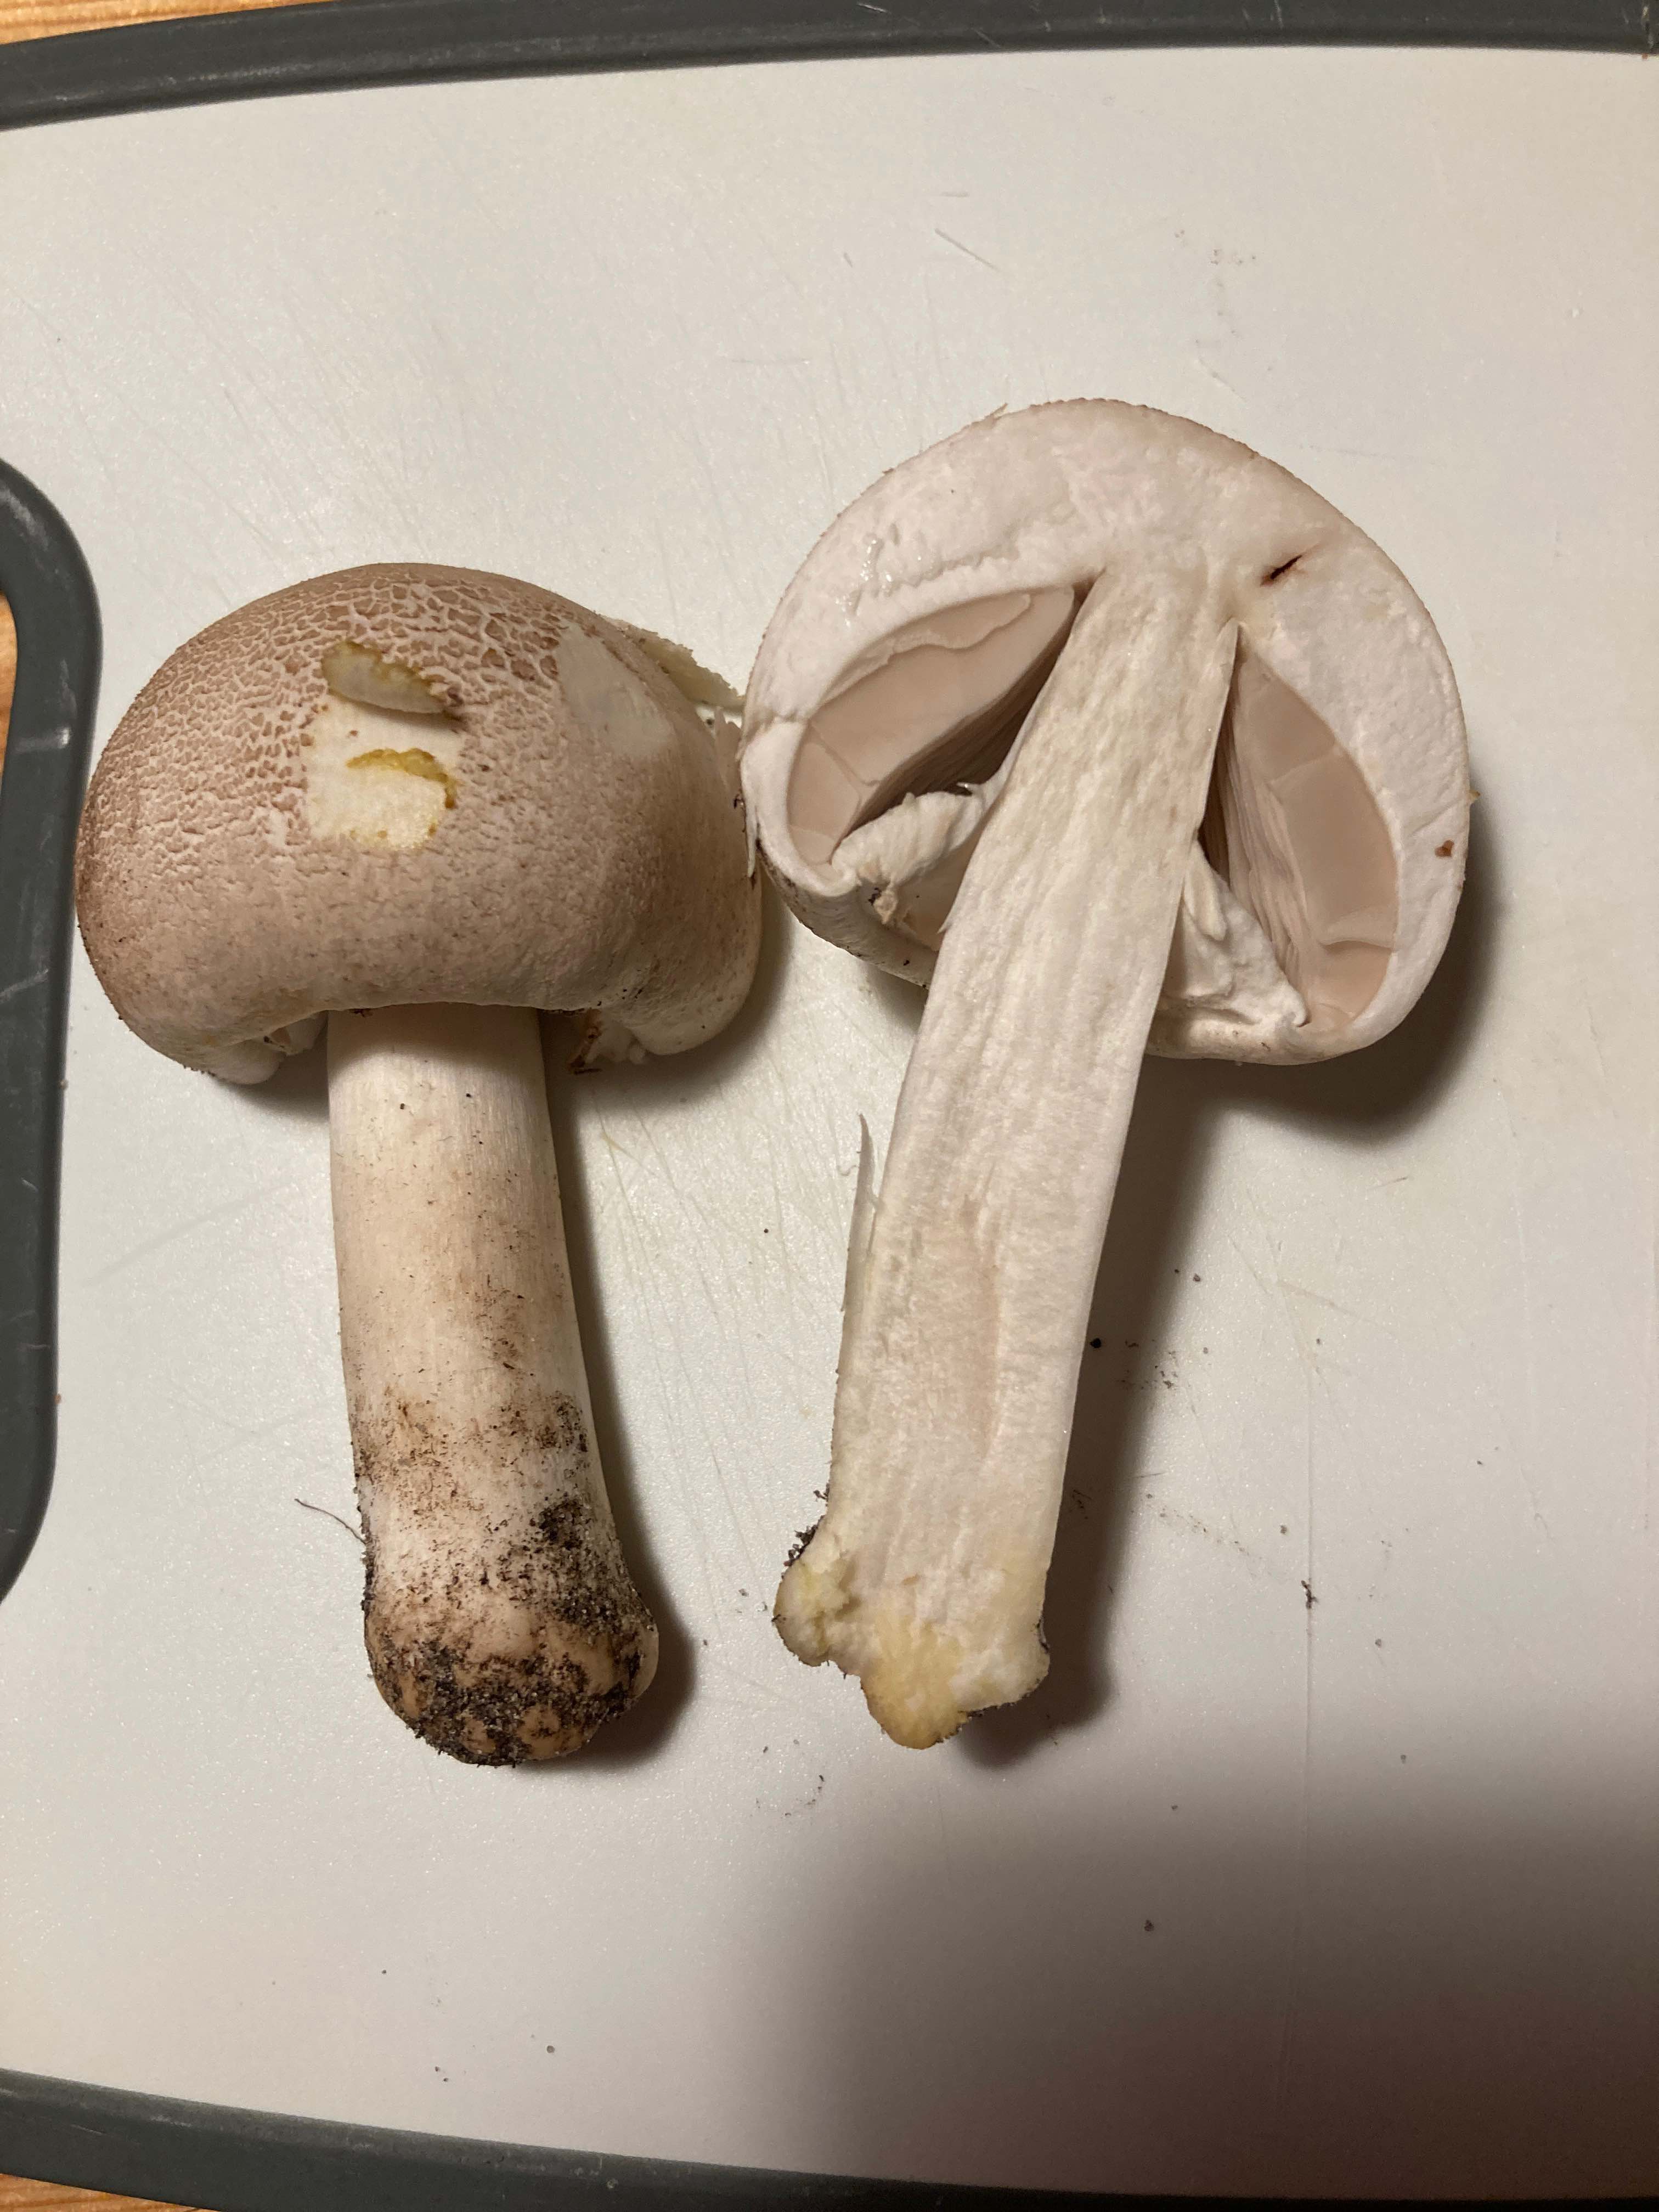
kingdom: Fungi
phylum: Basidiomycota
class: Agaricomycetes
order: Agaricales
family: Agaricaceae
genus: Agaricus
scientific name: Agaricus xanthodermus
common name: karbol-champignon
